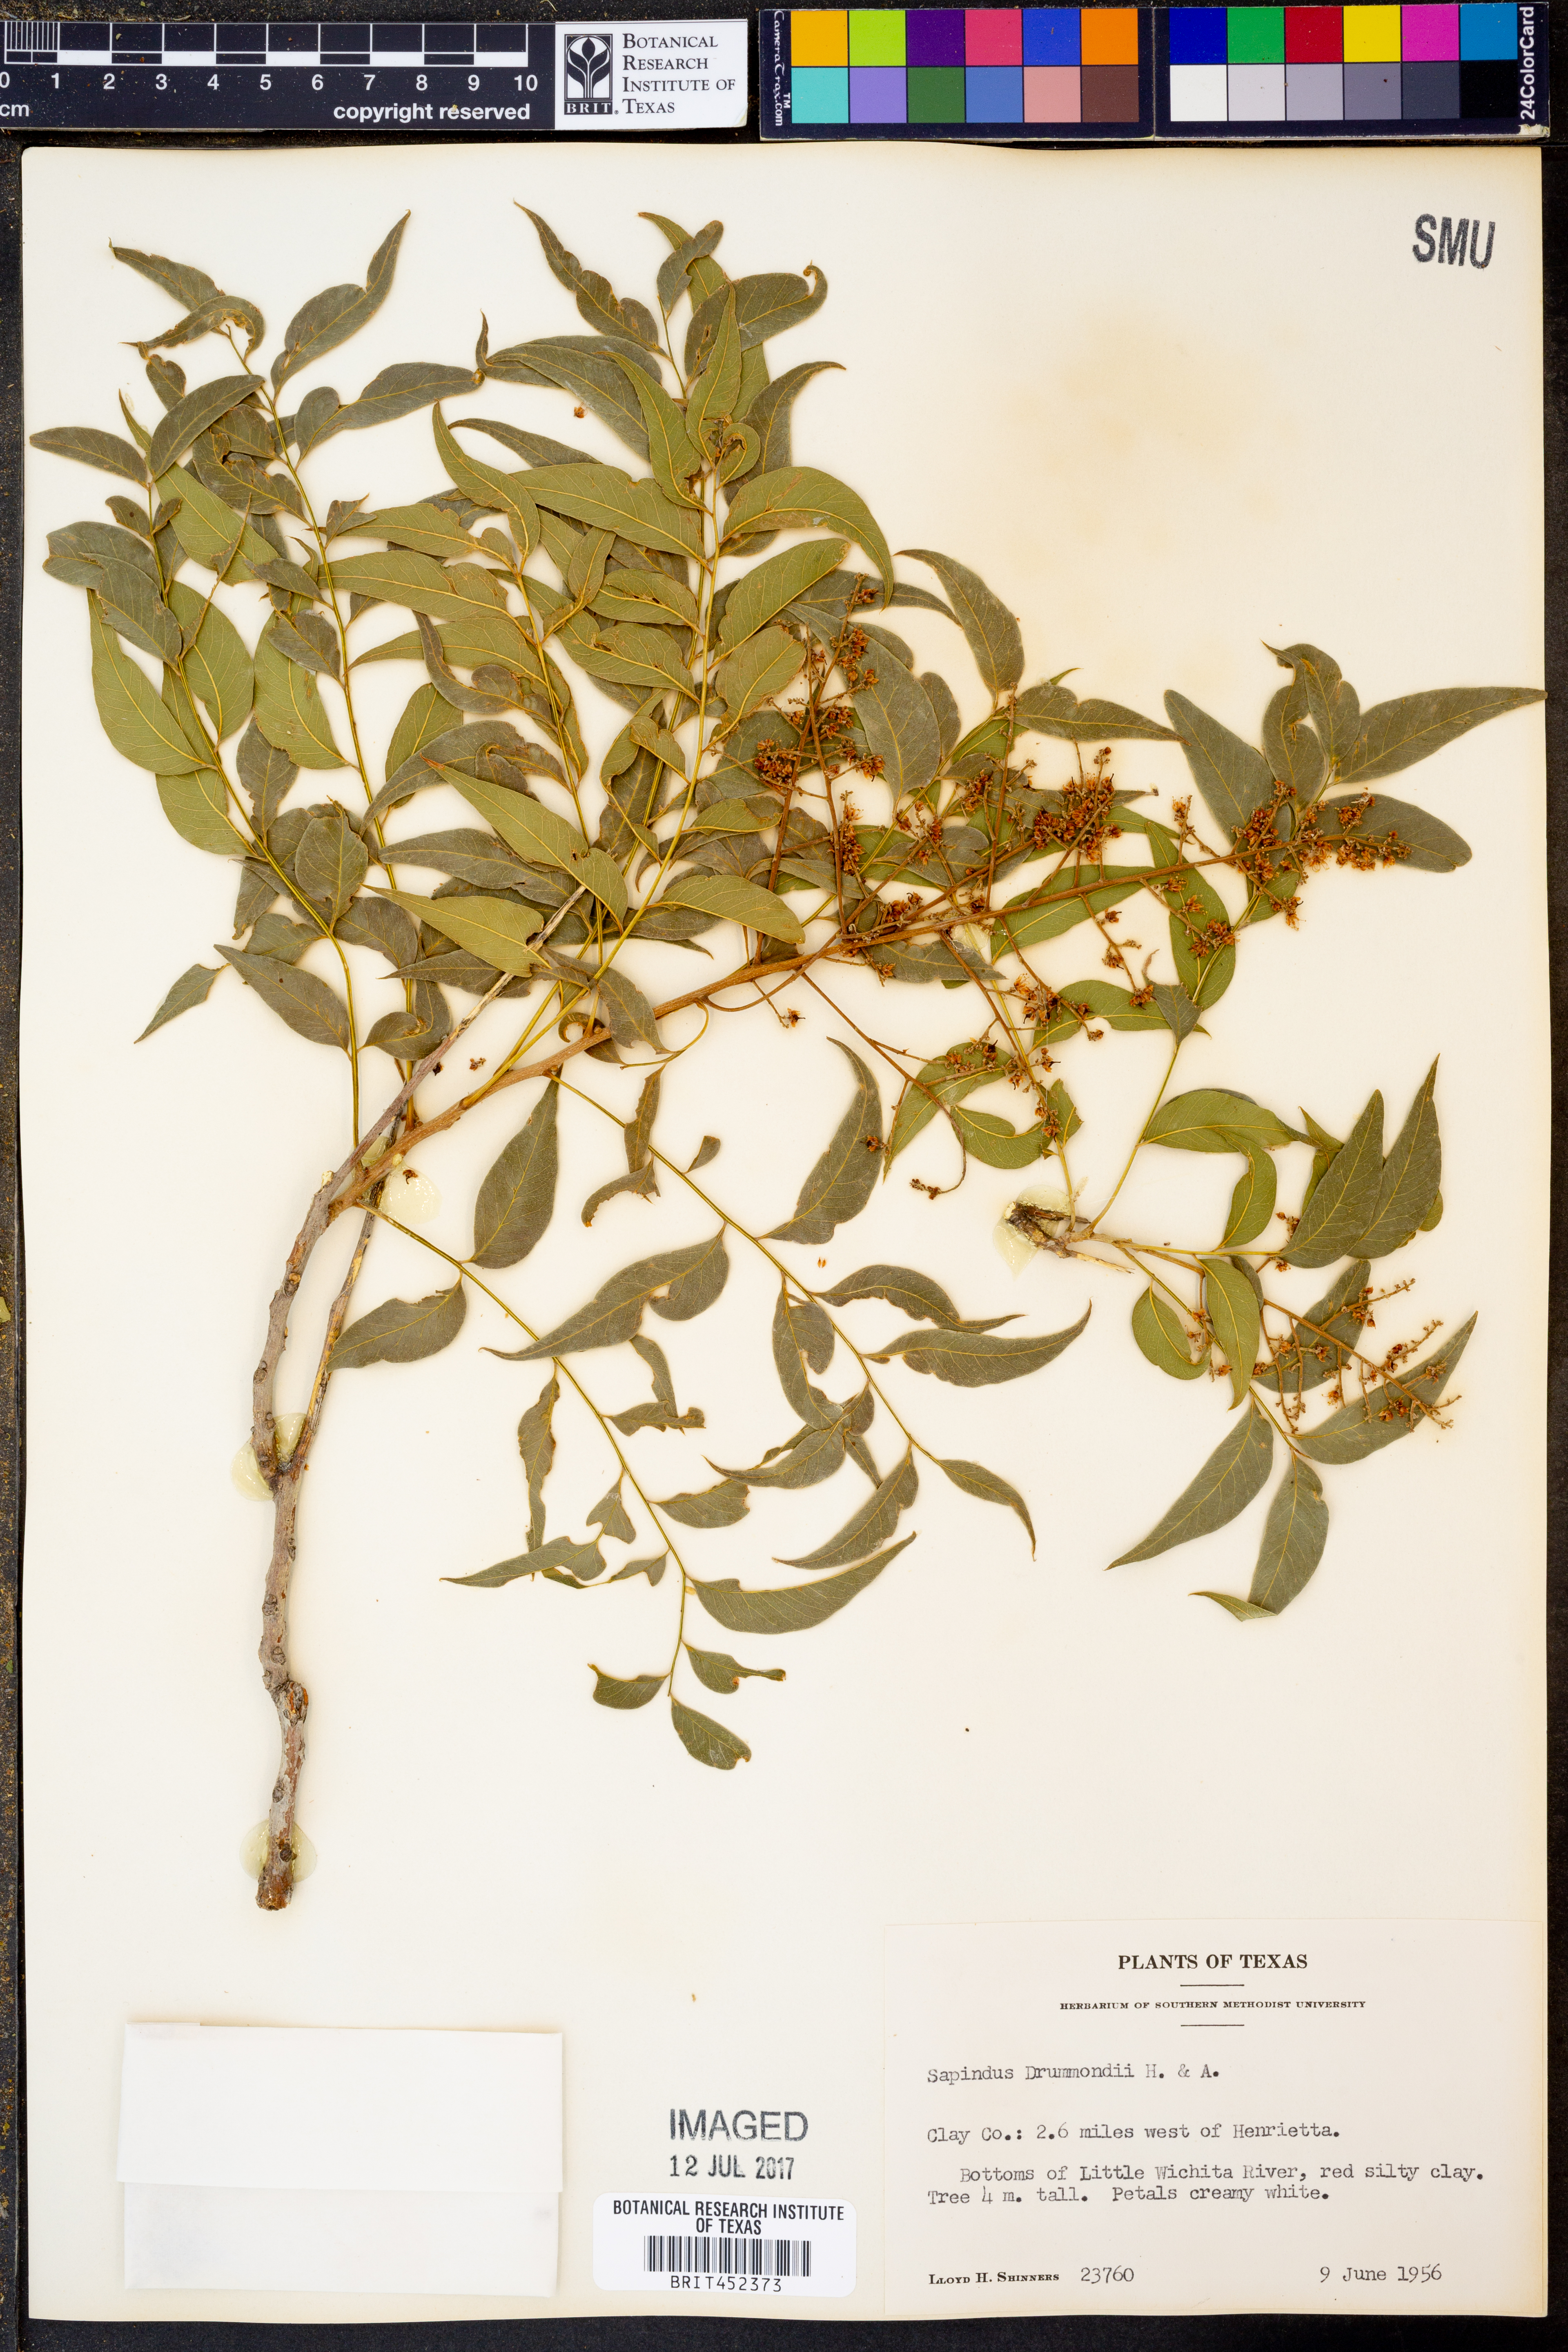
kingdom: Plantae
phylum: Tracheophyta
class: Magnoliopsida
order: Sapindales
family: Sapindaceae
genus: Sapindus
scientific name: Sapindus drummondii
